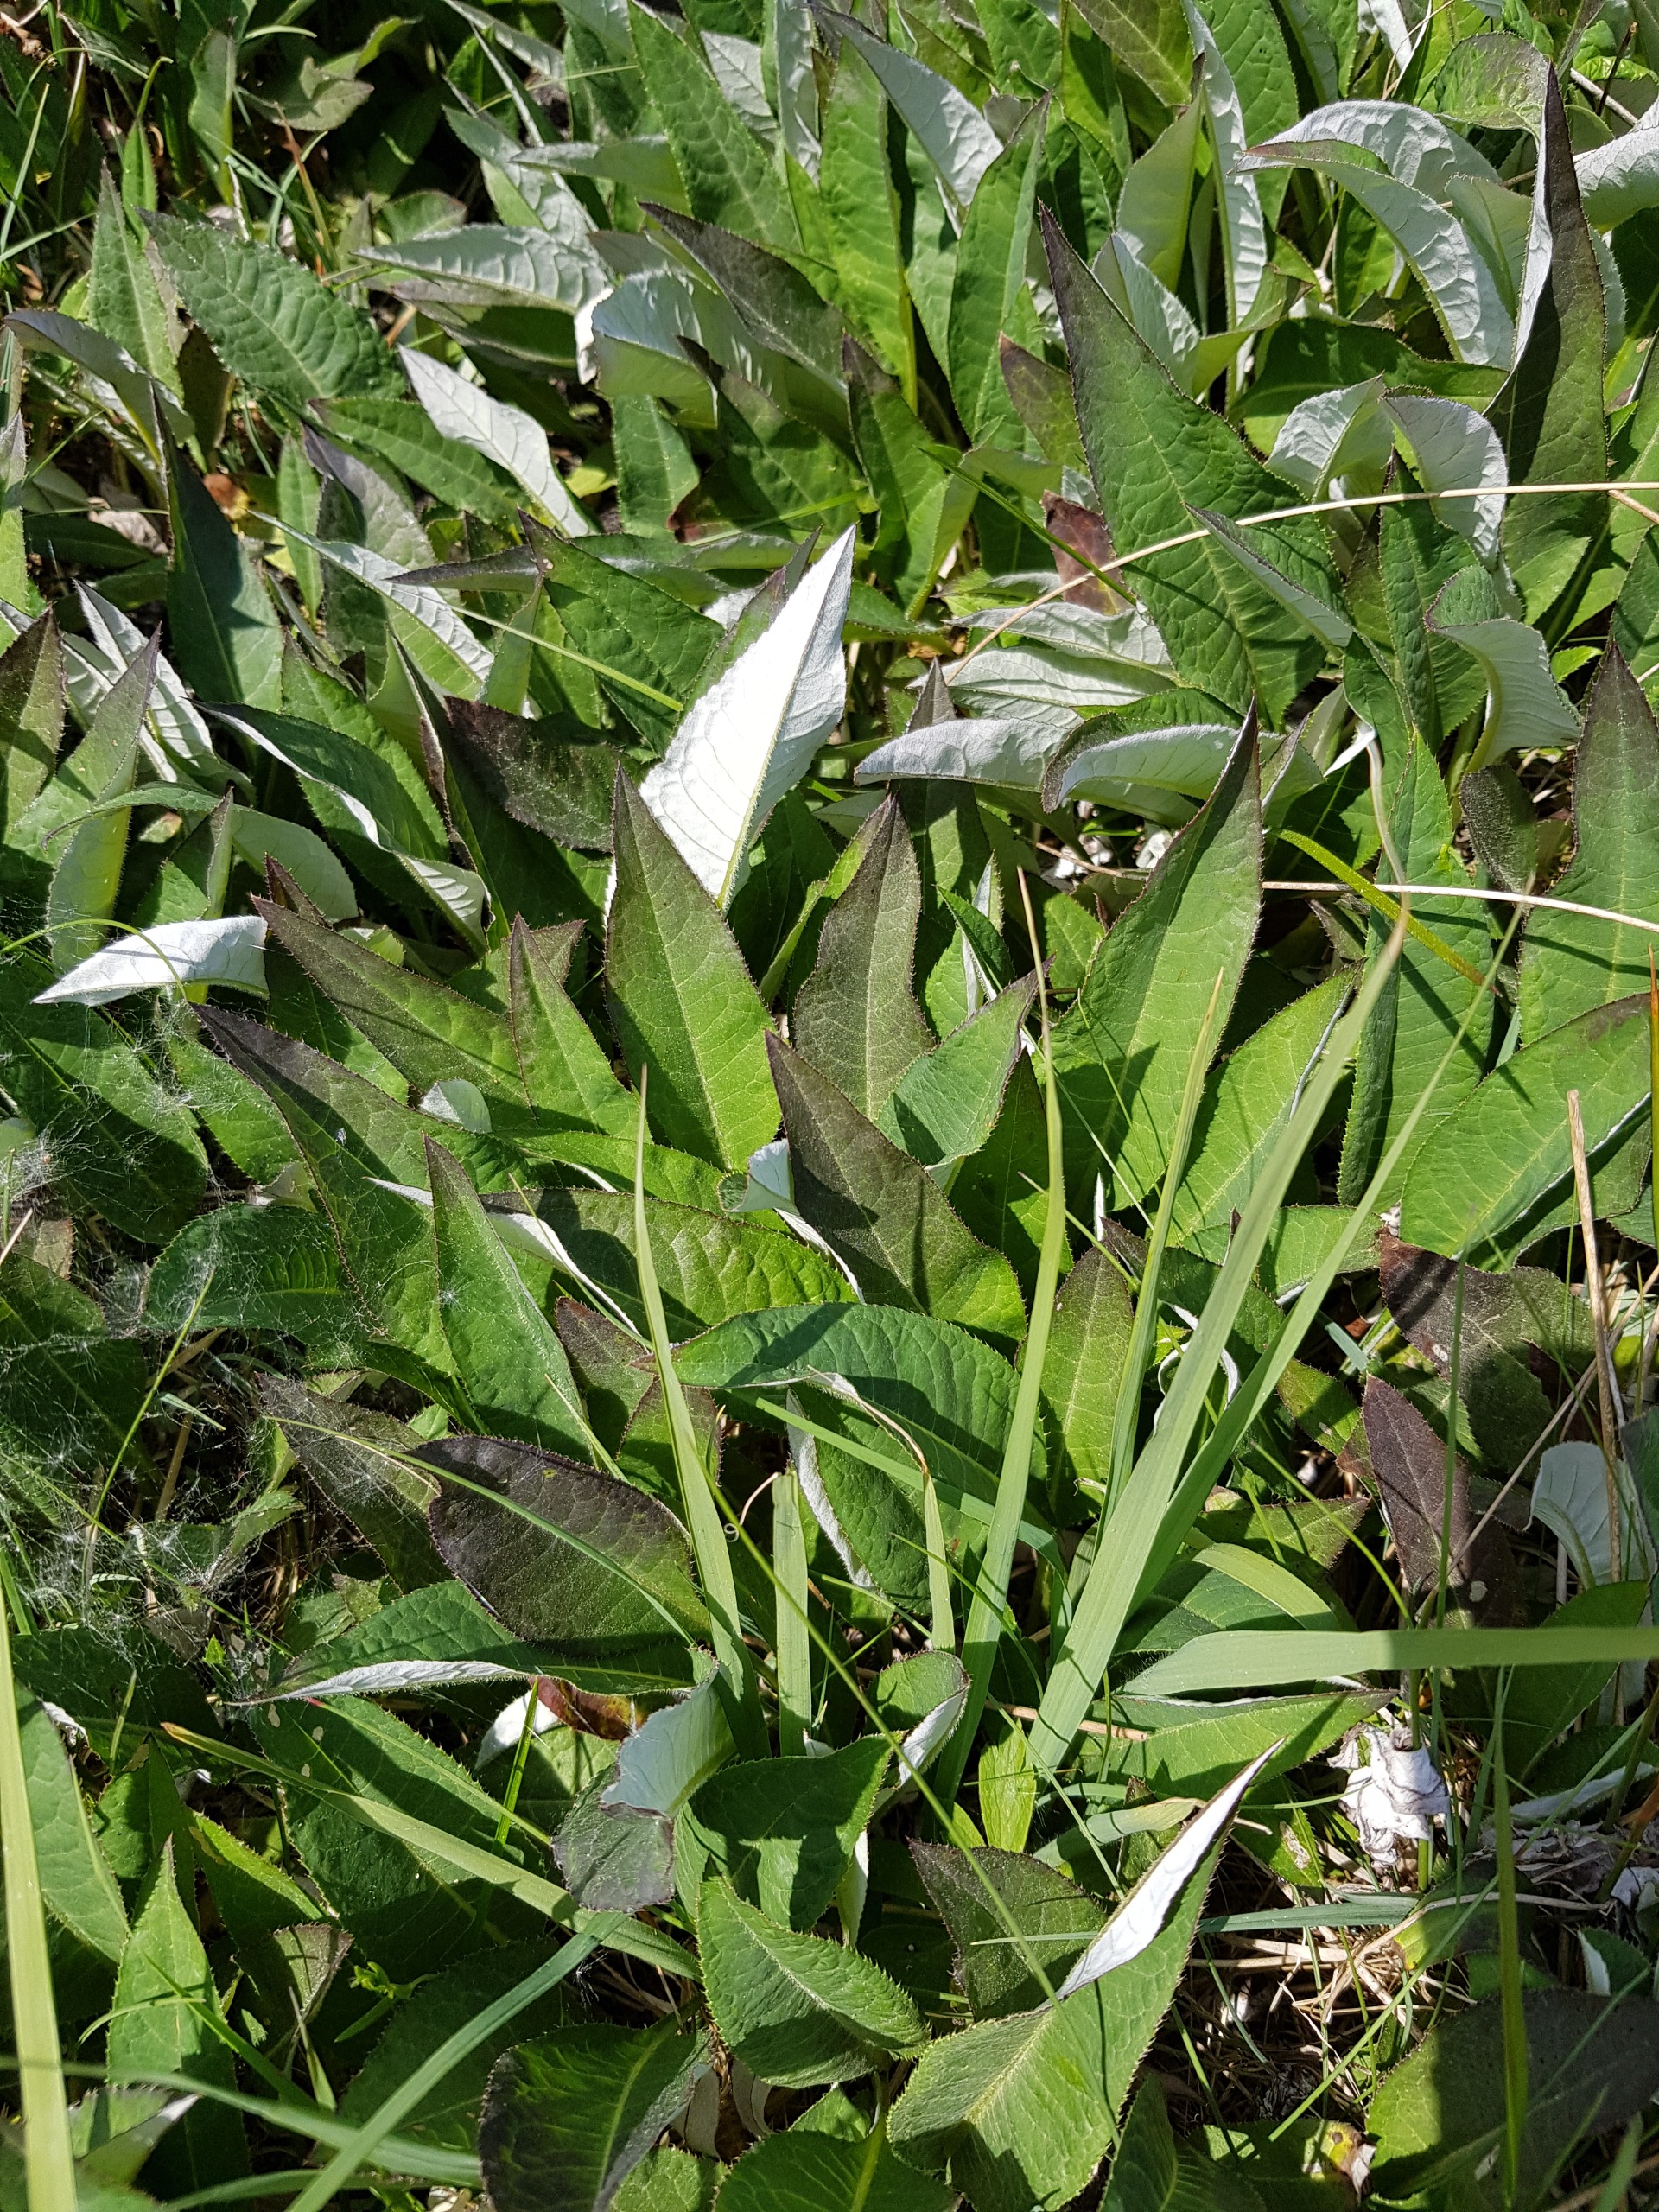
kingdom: Plantae
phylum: Tracheophyta
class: Magnoliopsida
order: Asterales
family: Asteraceae
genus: Cirsium
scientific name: Cirsium heterophyllum
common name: Forskelligbladet tidsel
